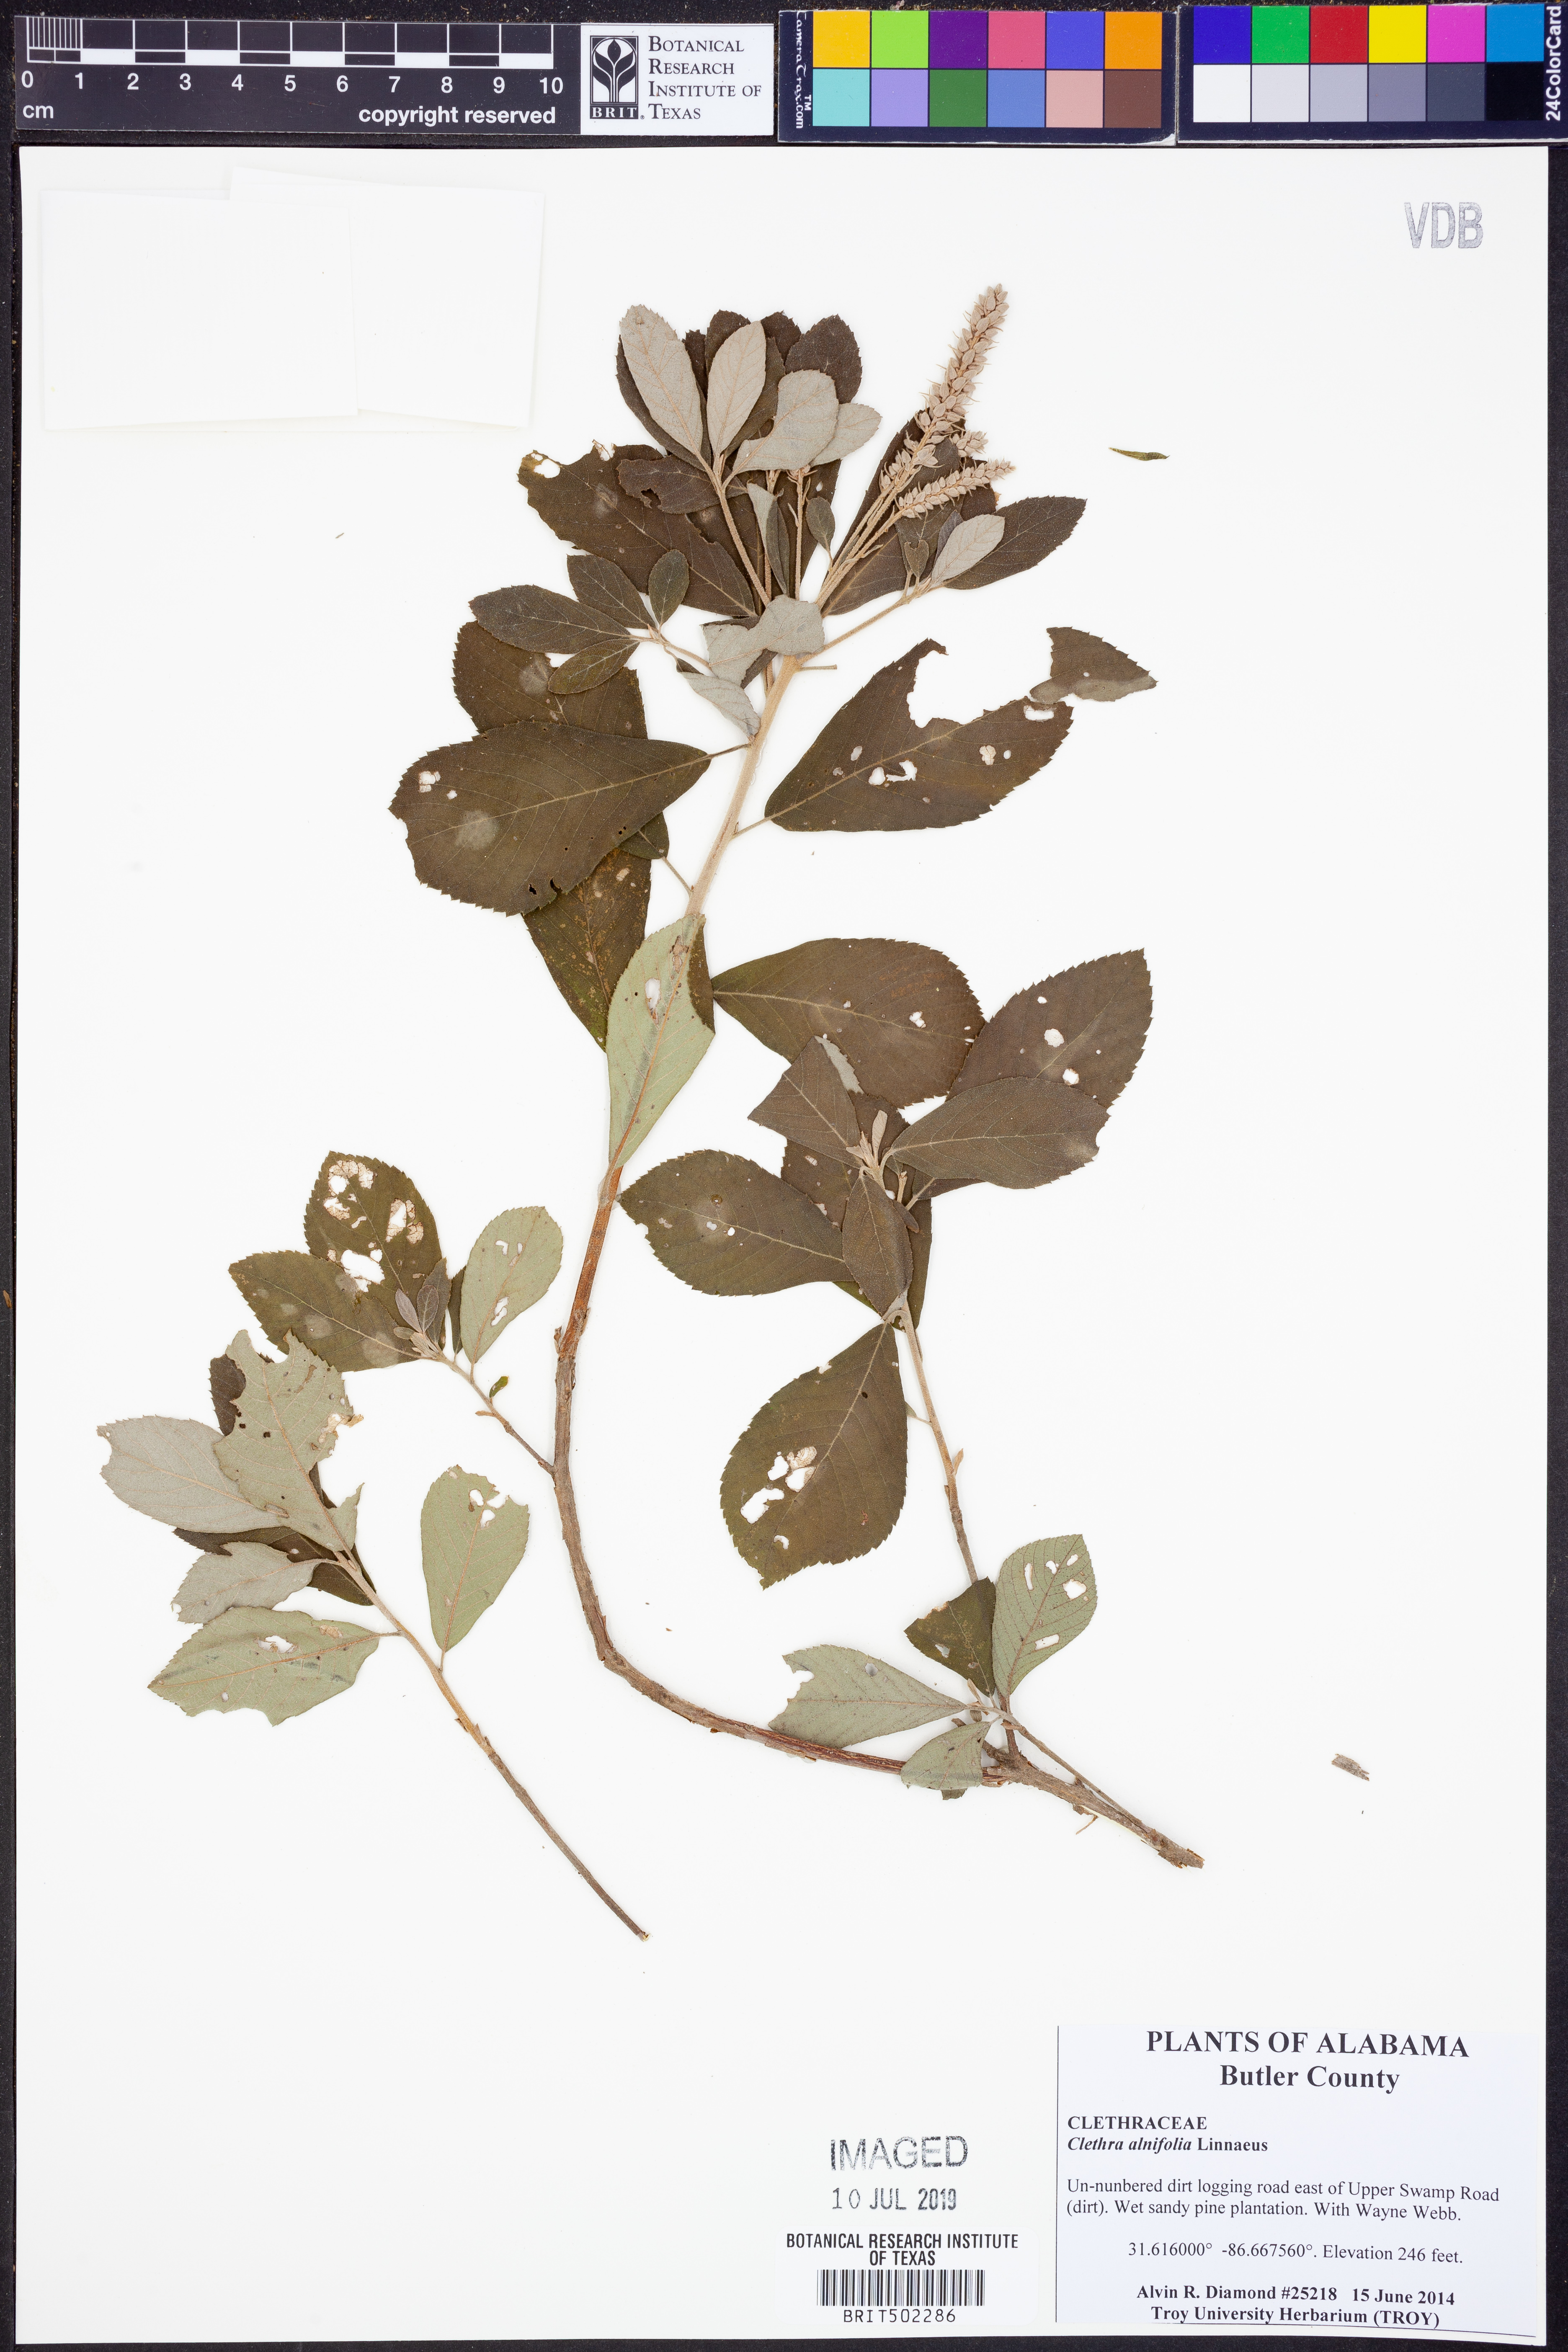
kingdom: Plantae
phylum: Tracheophyta
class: Magnoliopsida
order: Ericales
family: Clethraceae
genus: Clethra
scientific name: Clethra alnifolia
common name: Sweet pepperbush
